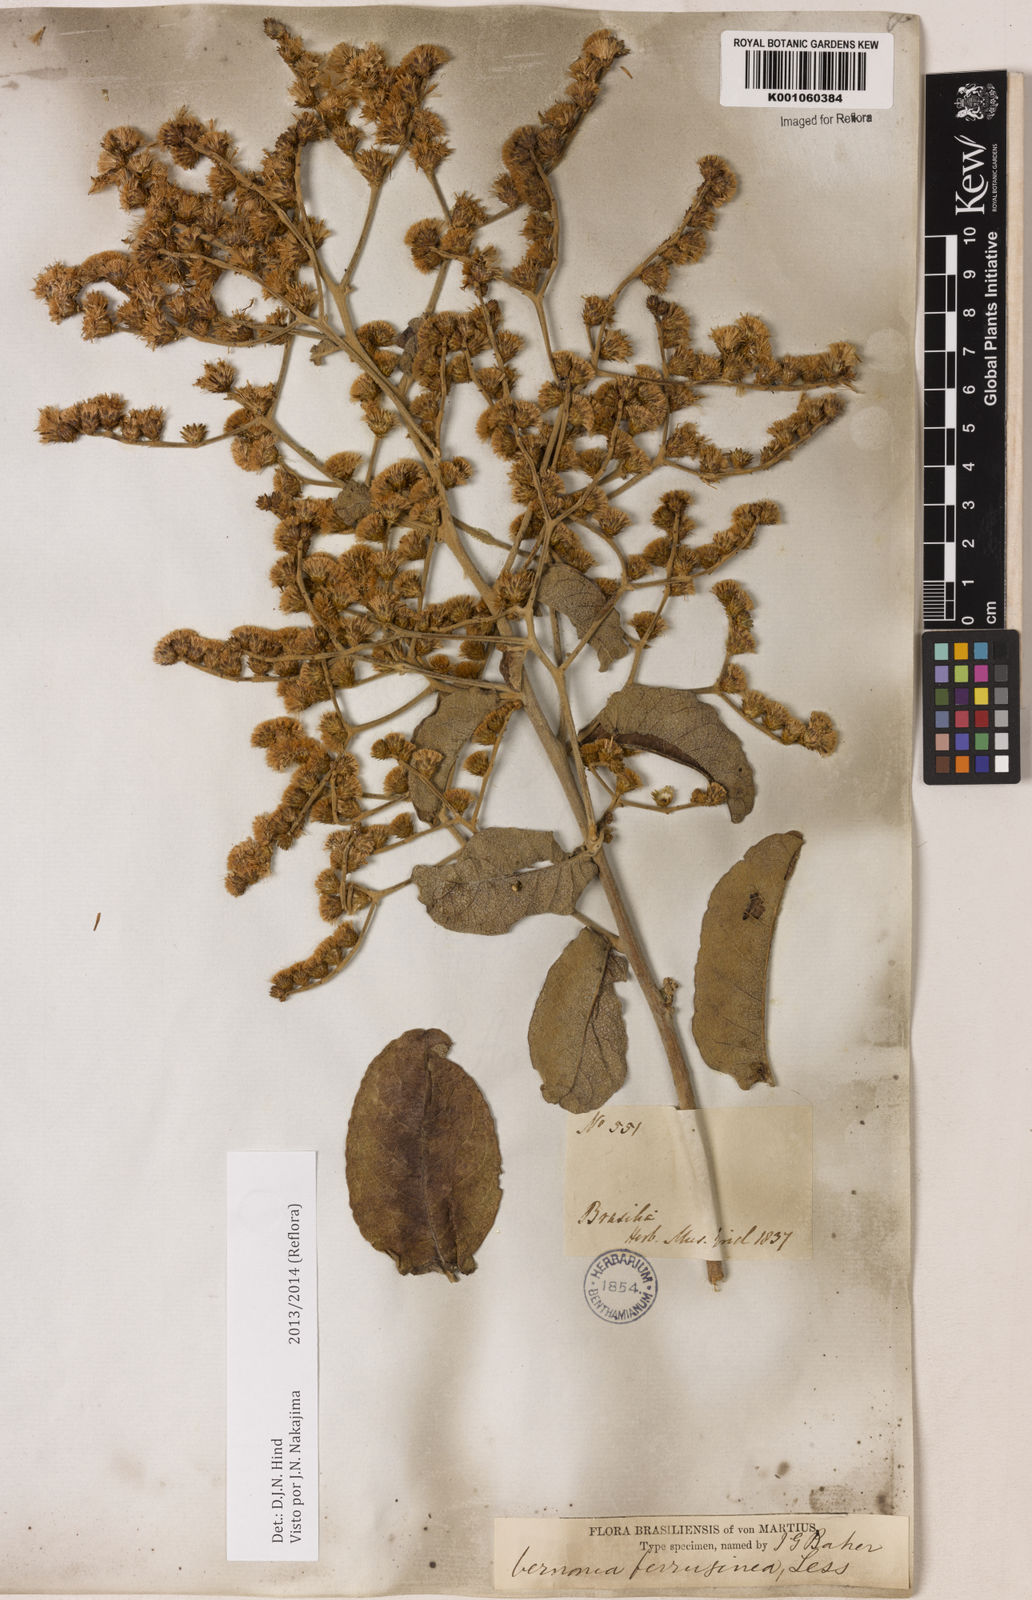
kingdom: Plantae
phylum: Tracheophyta
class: Magnoliopsida
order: Asterales
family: Asteraceae
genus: Vernonanthura
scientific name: Vernonanthura ferruginea
